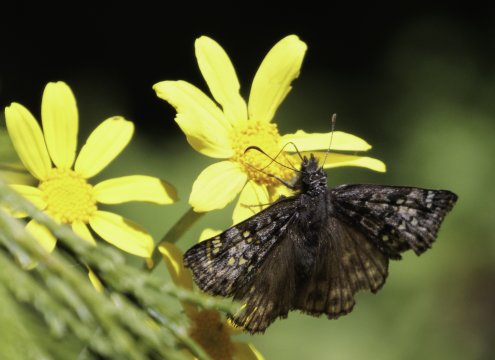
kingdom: Animalia
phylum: Arthropoda
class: Insecta
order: Lepidoptera
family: Hesperiidae
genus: Erynnis
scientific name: Erynnis propertius
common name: Propertius Duskywing
